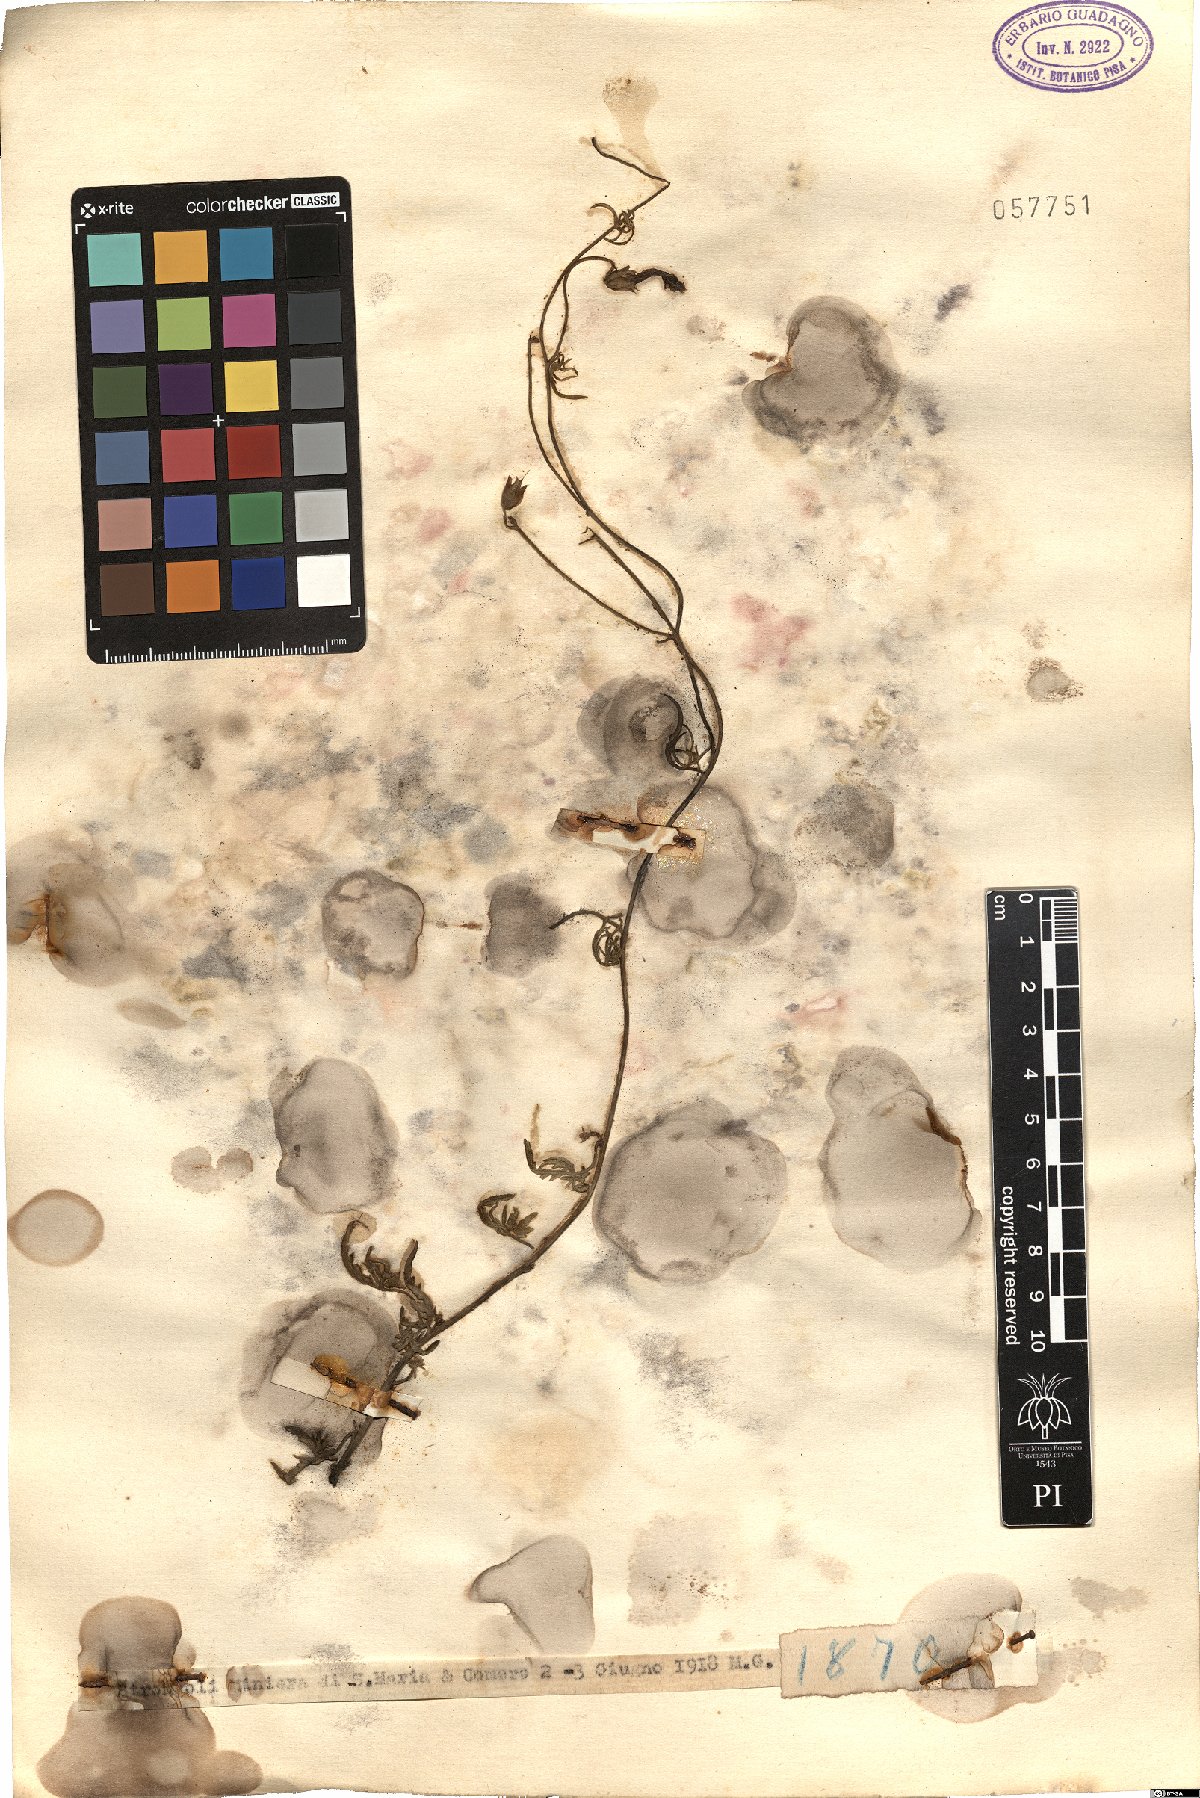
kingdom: Plantae
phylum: Tracheophyta
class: Magnoliopsida
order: Solanales
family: Convolvulaceae
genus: Convolvulus
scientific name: Convolvulus
